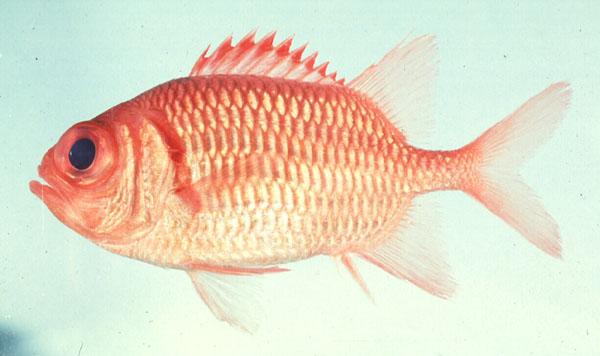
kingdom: Animalia
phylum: Chordata
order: Beryciformes
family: Holocentridae
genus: Myripristis
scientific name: Myripristis hexagona
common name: Blacktip soldierfish
